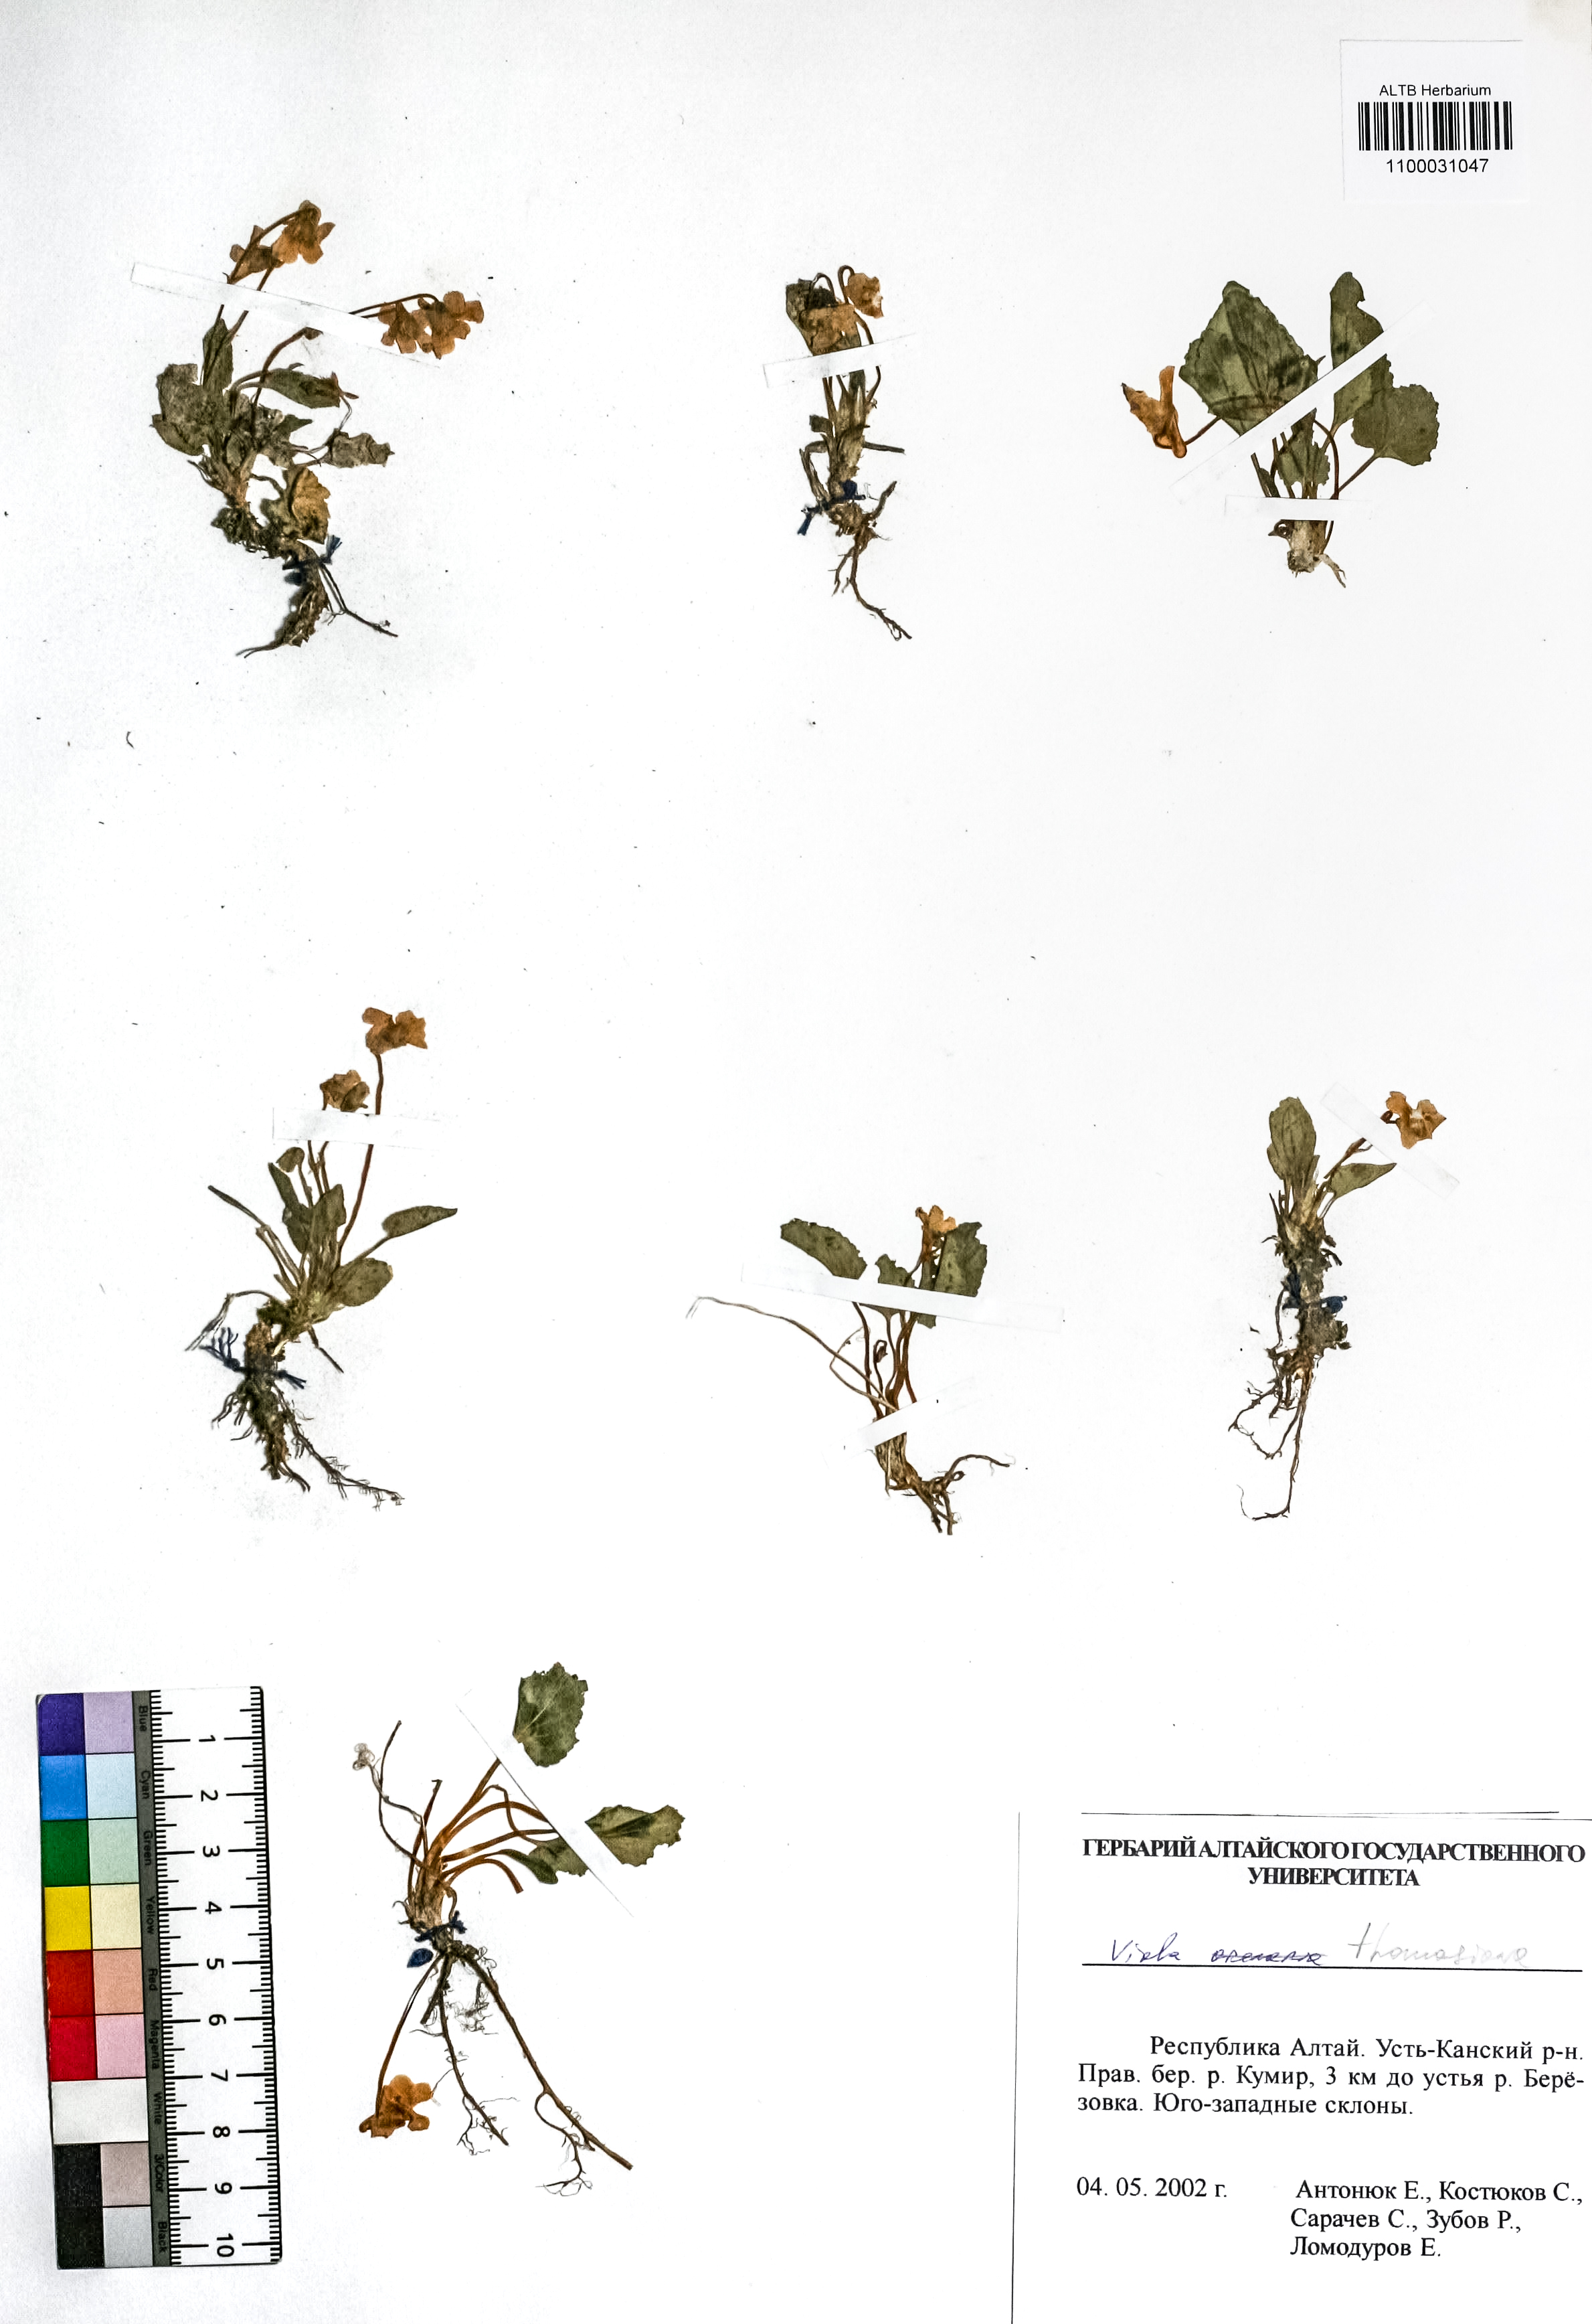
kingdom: Plantae
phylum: Tracheophyta
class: Magnoliopsida
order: Malpighiales
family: Violaceae
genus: Viola
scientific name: Viola stagnina
